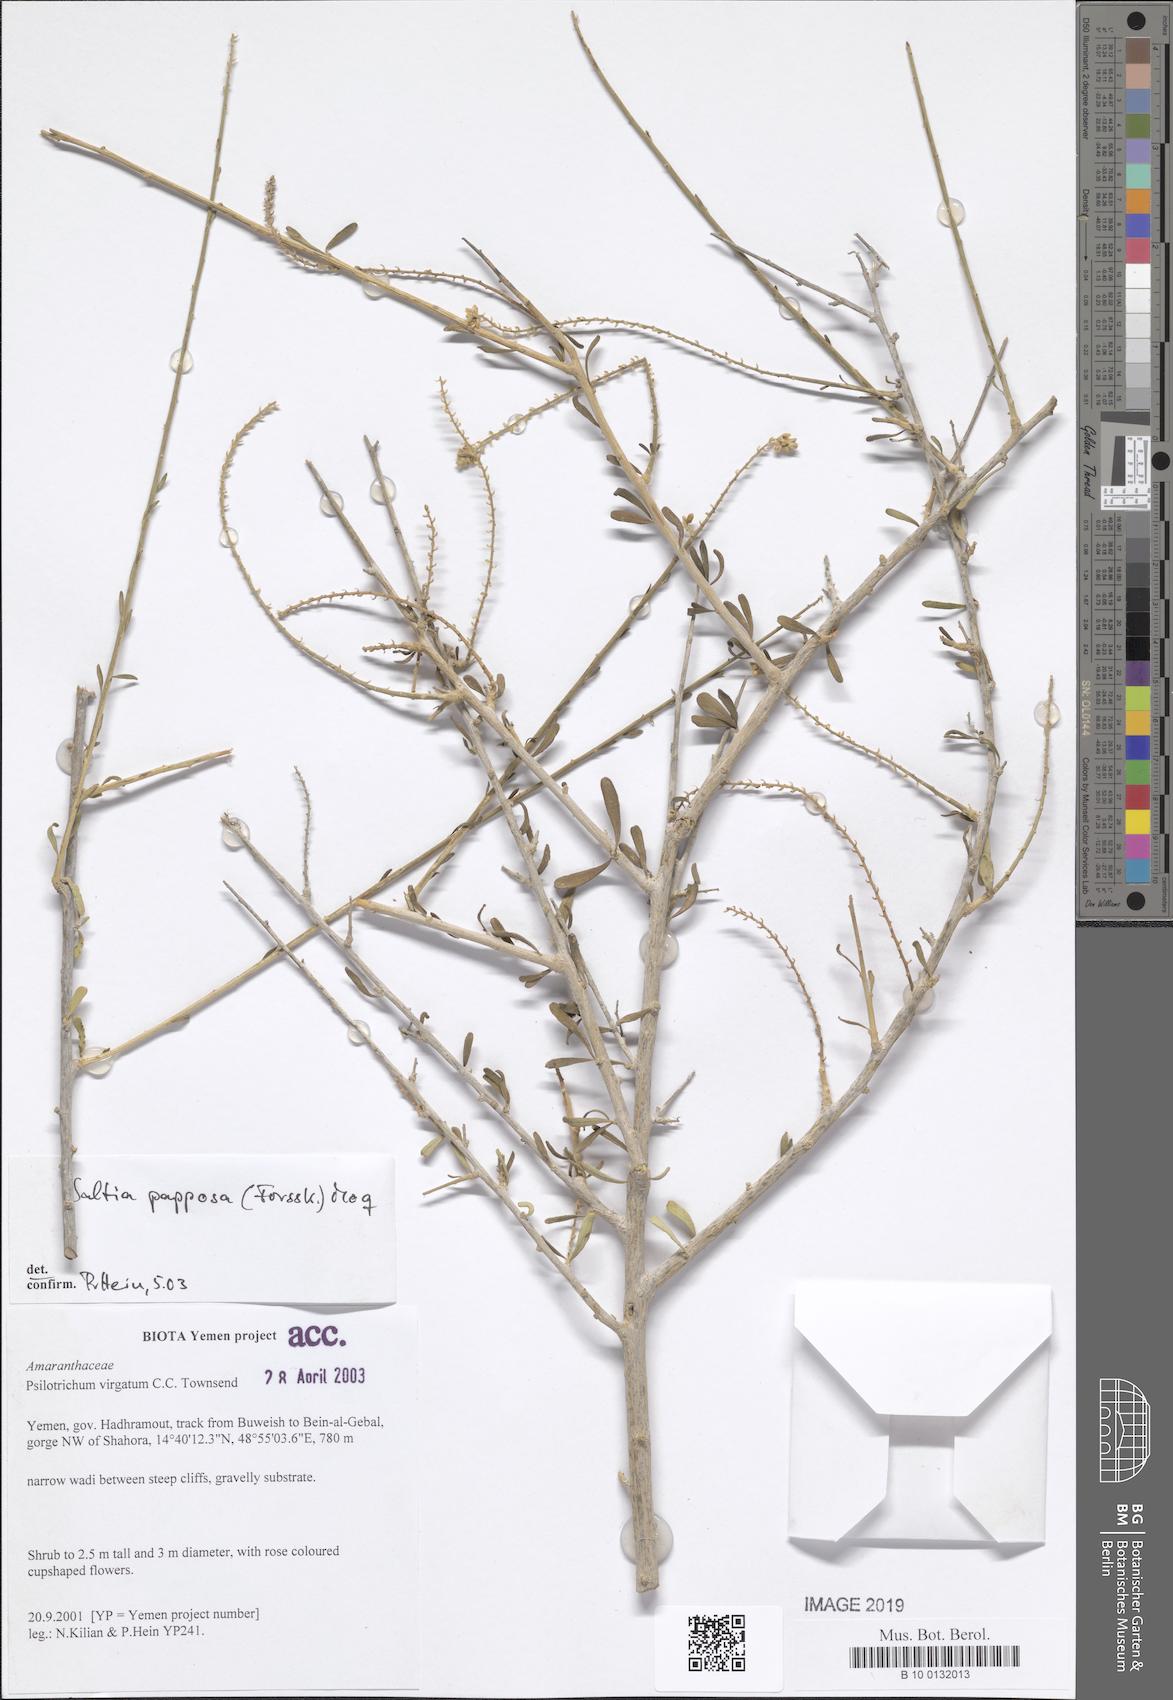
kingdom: Plantae
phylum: Tracheophyta
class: Magnoliopsida
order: Caryophyllales
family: Amaranthaceae
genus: Saltia
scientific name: Saltia papposa
